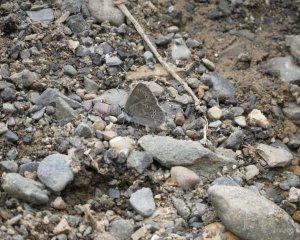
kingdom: Animalia
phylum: Arthropoda
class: Insecta
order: Lepidoptera
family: Lycaenidae
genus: Glaucopsyche
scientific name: Glaucopsyche lygdamus
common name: Silvery Blue
